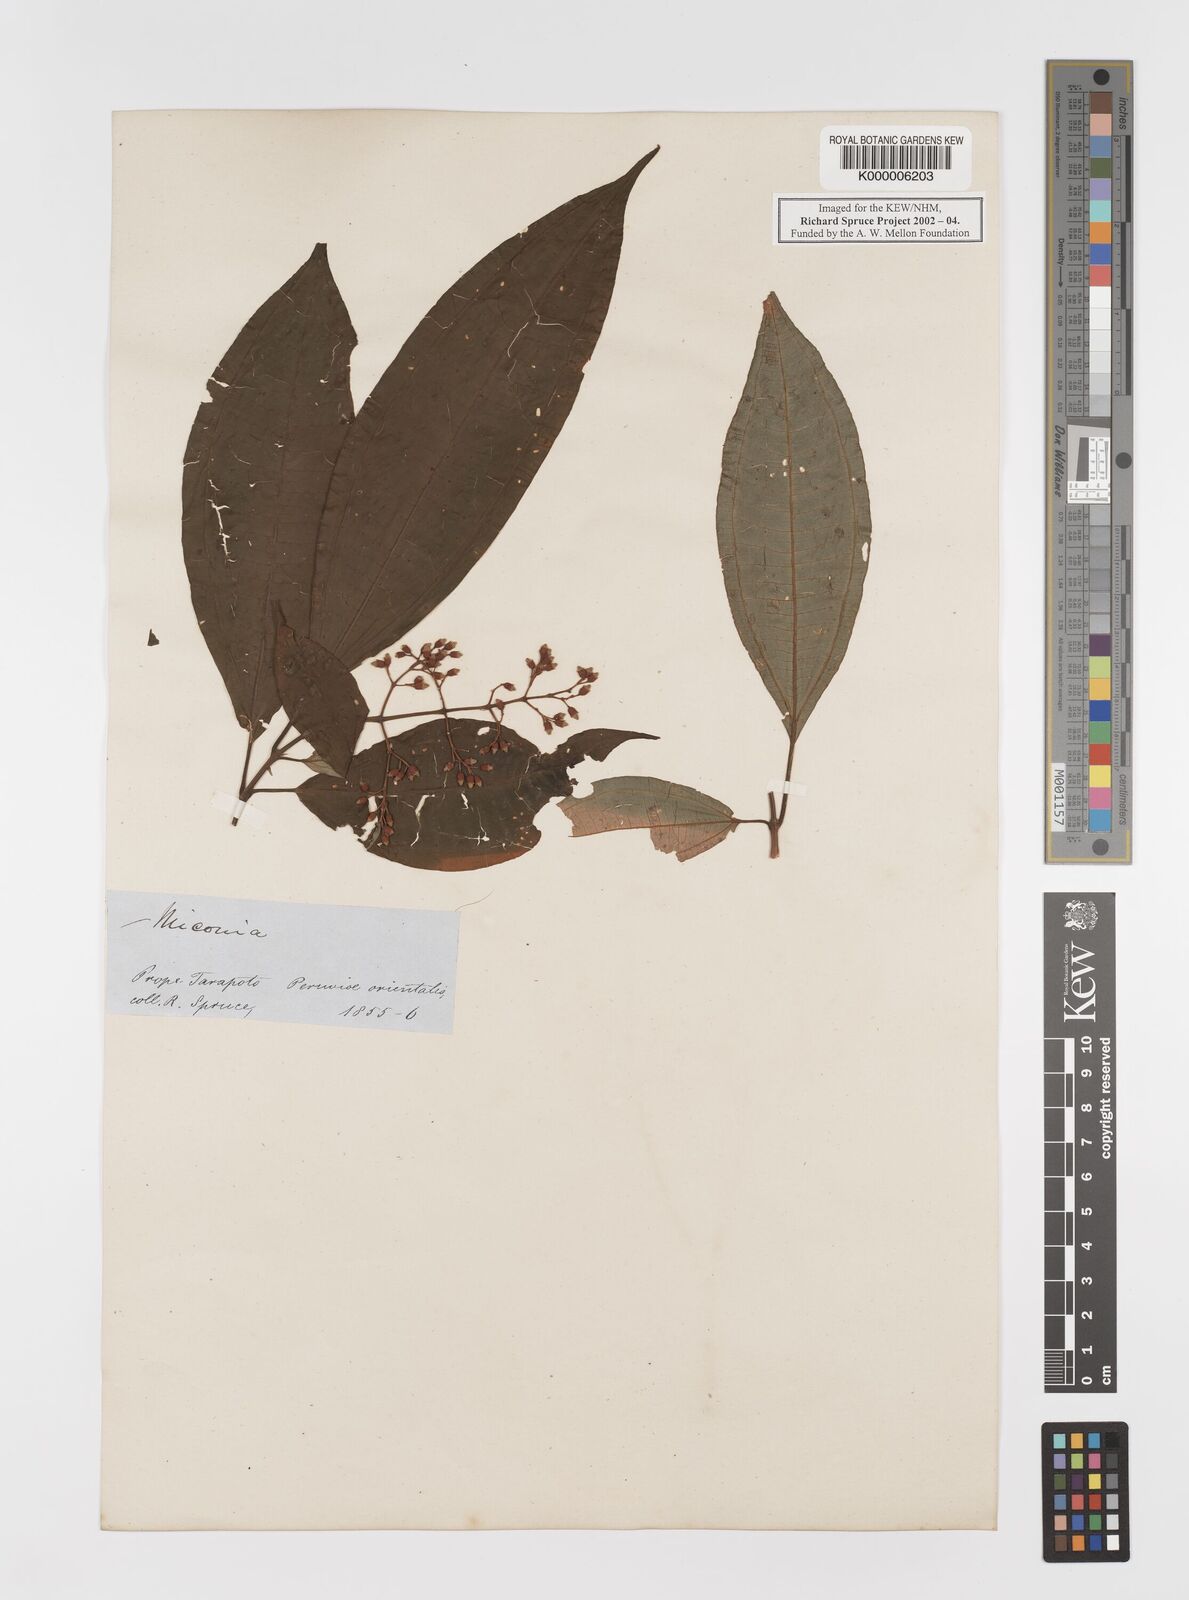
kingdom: Plantae
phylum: Tracheophyta
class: Magnoliopsida
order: Myrtales
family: Melastomataceae
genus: Miconia
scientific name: Miconia
